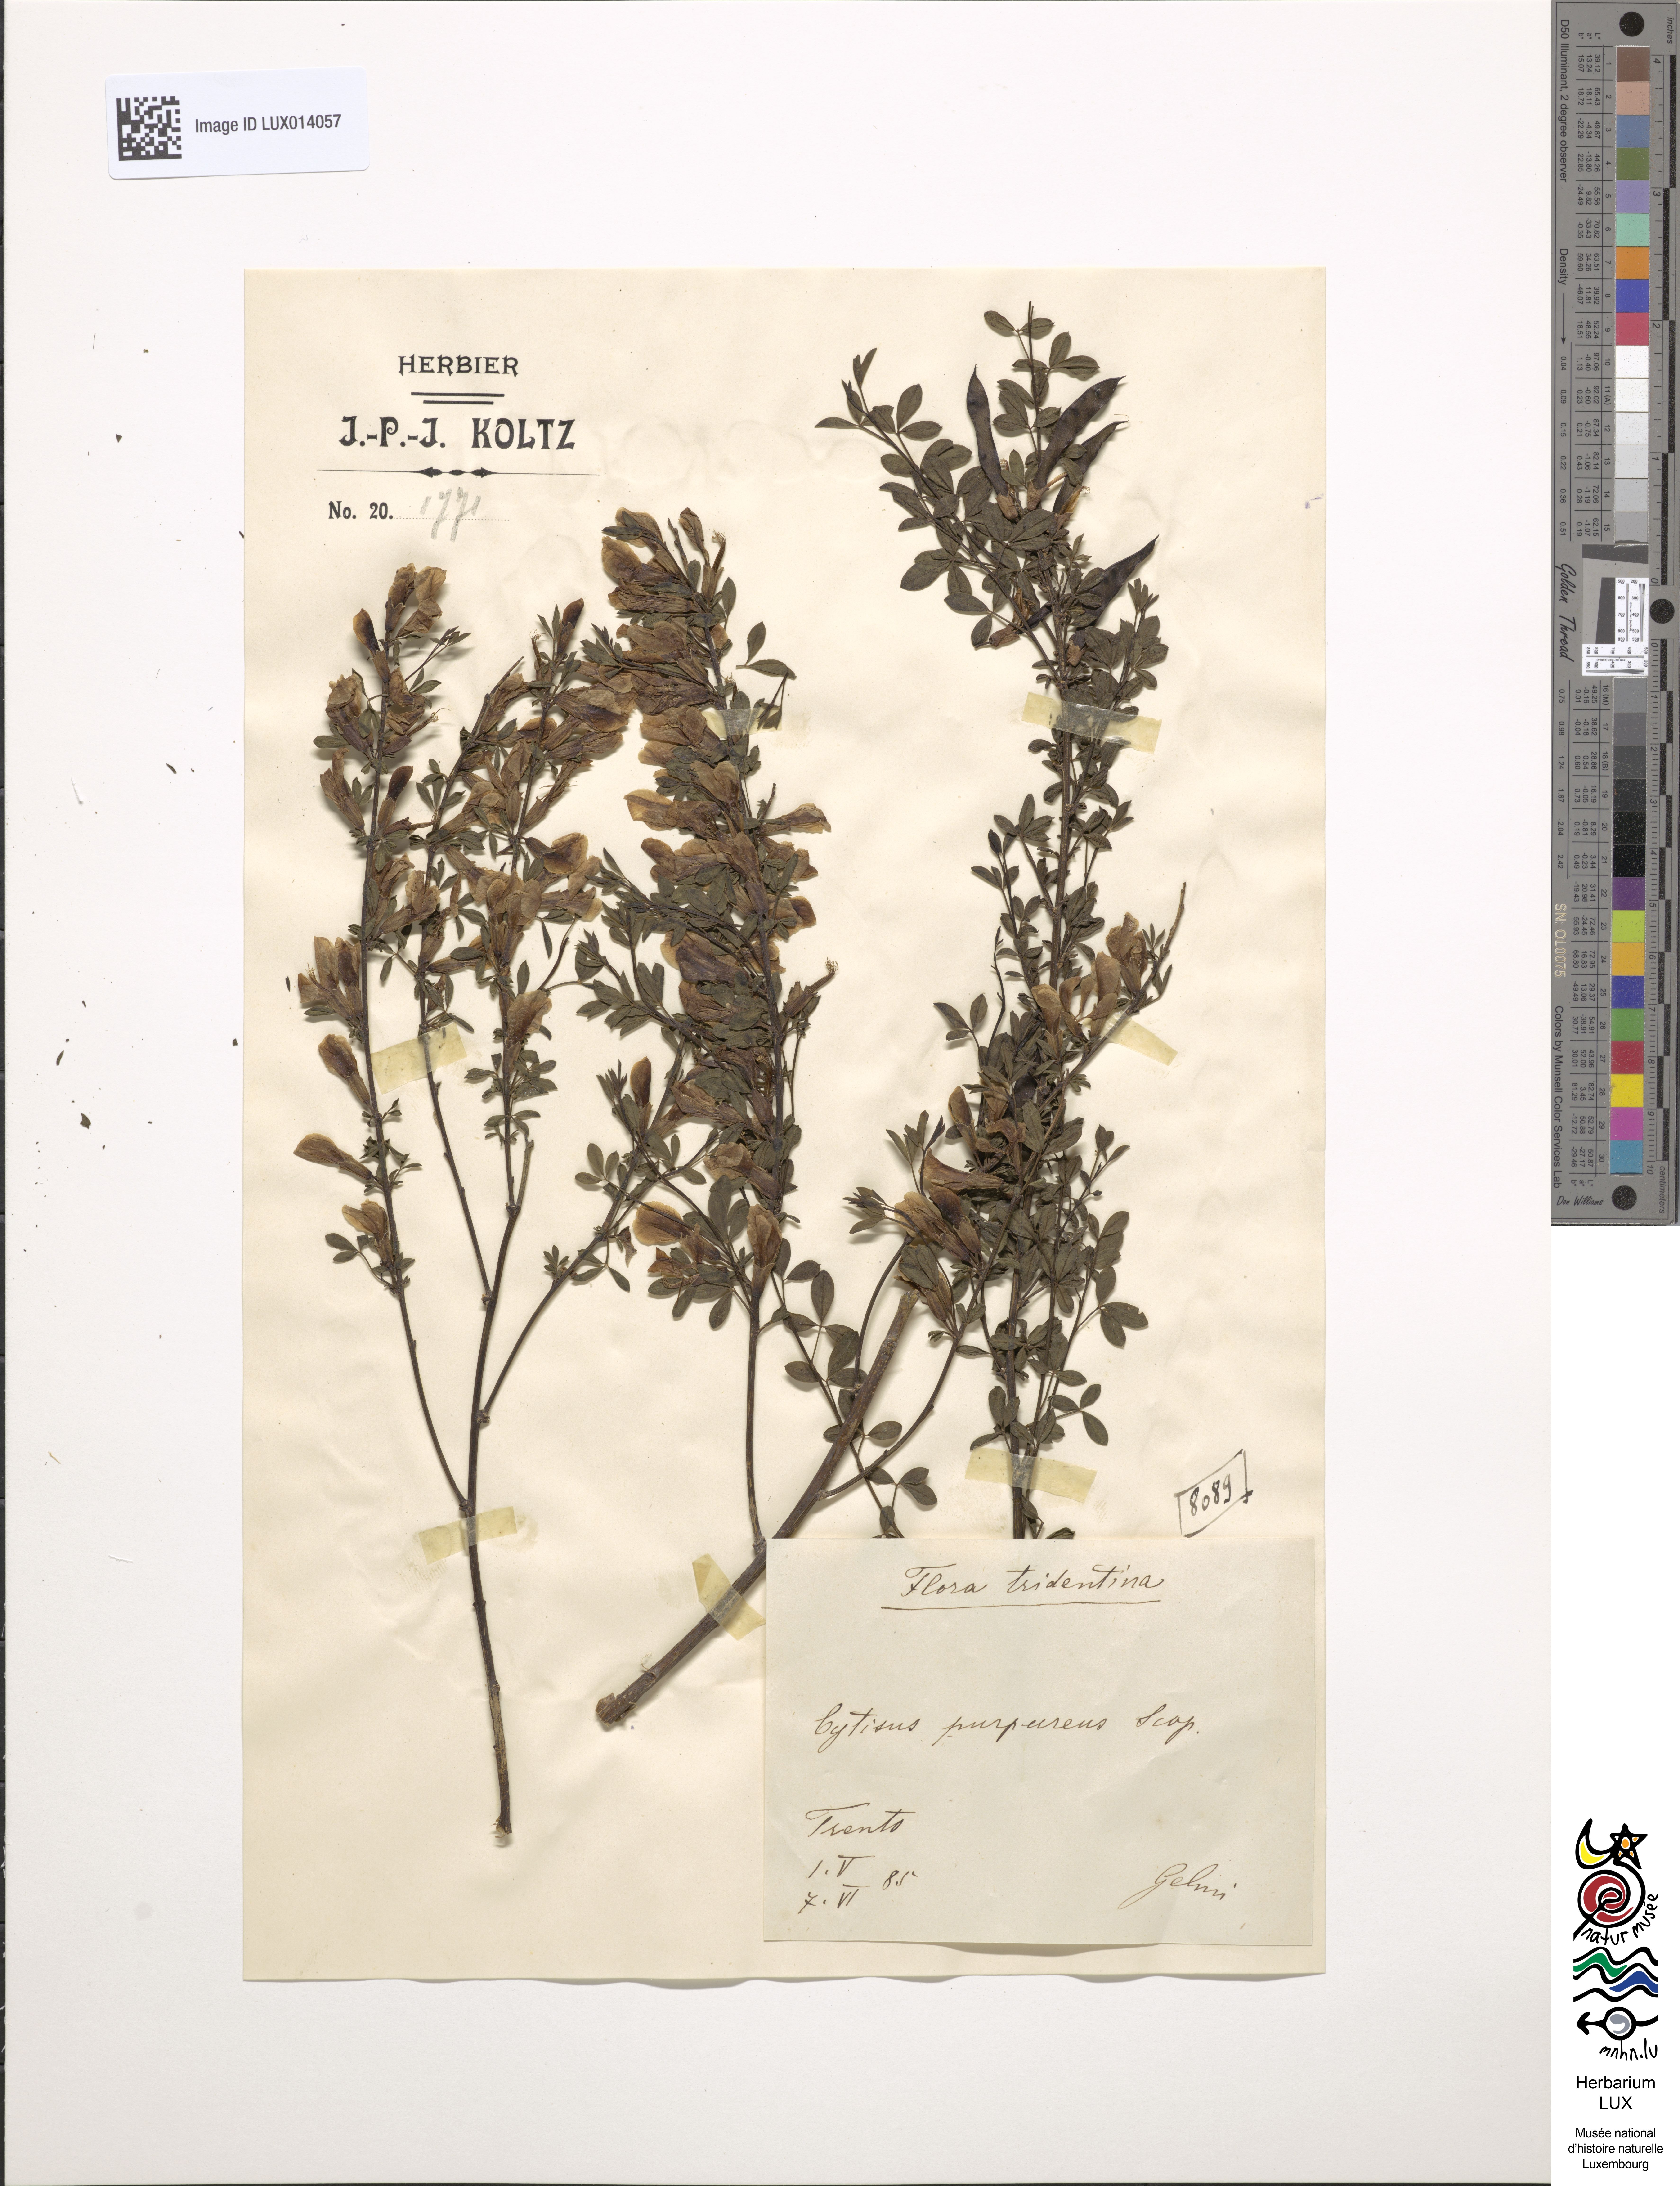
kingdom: Plantae
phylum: Tracheophyta
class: Magnoliopsida
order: Fabales
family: Fabaceae
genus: Chamaecytisus
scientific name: Chamaecytisus purpureus
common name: Purple broom
